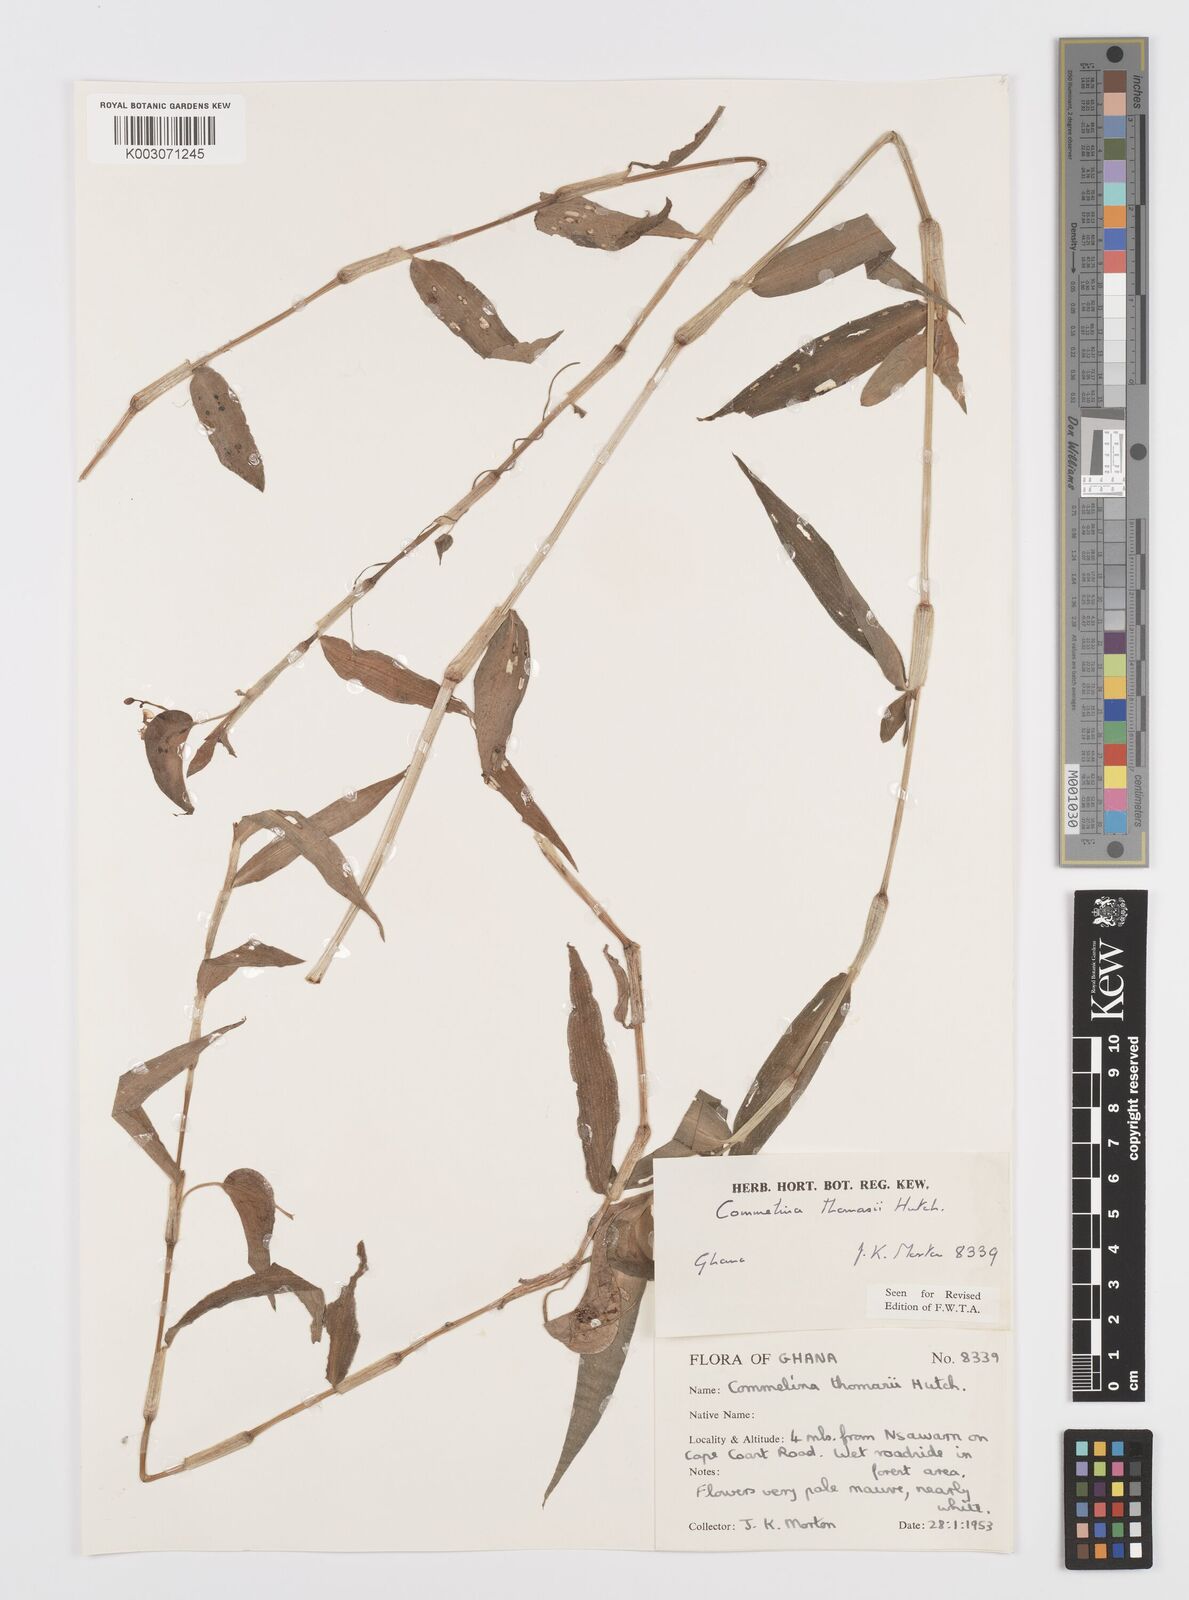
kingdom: Plantae
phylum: Tracheophyta
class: Liliopsida
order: Commelinales
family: Commelinaceae
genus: Commelina
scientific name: Commelina acutispatha
